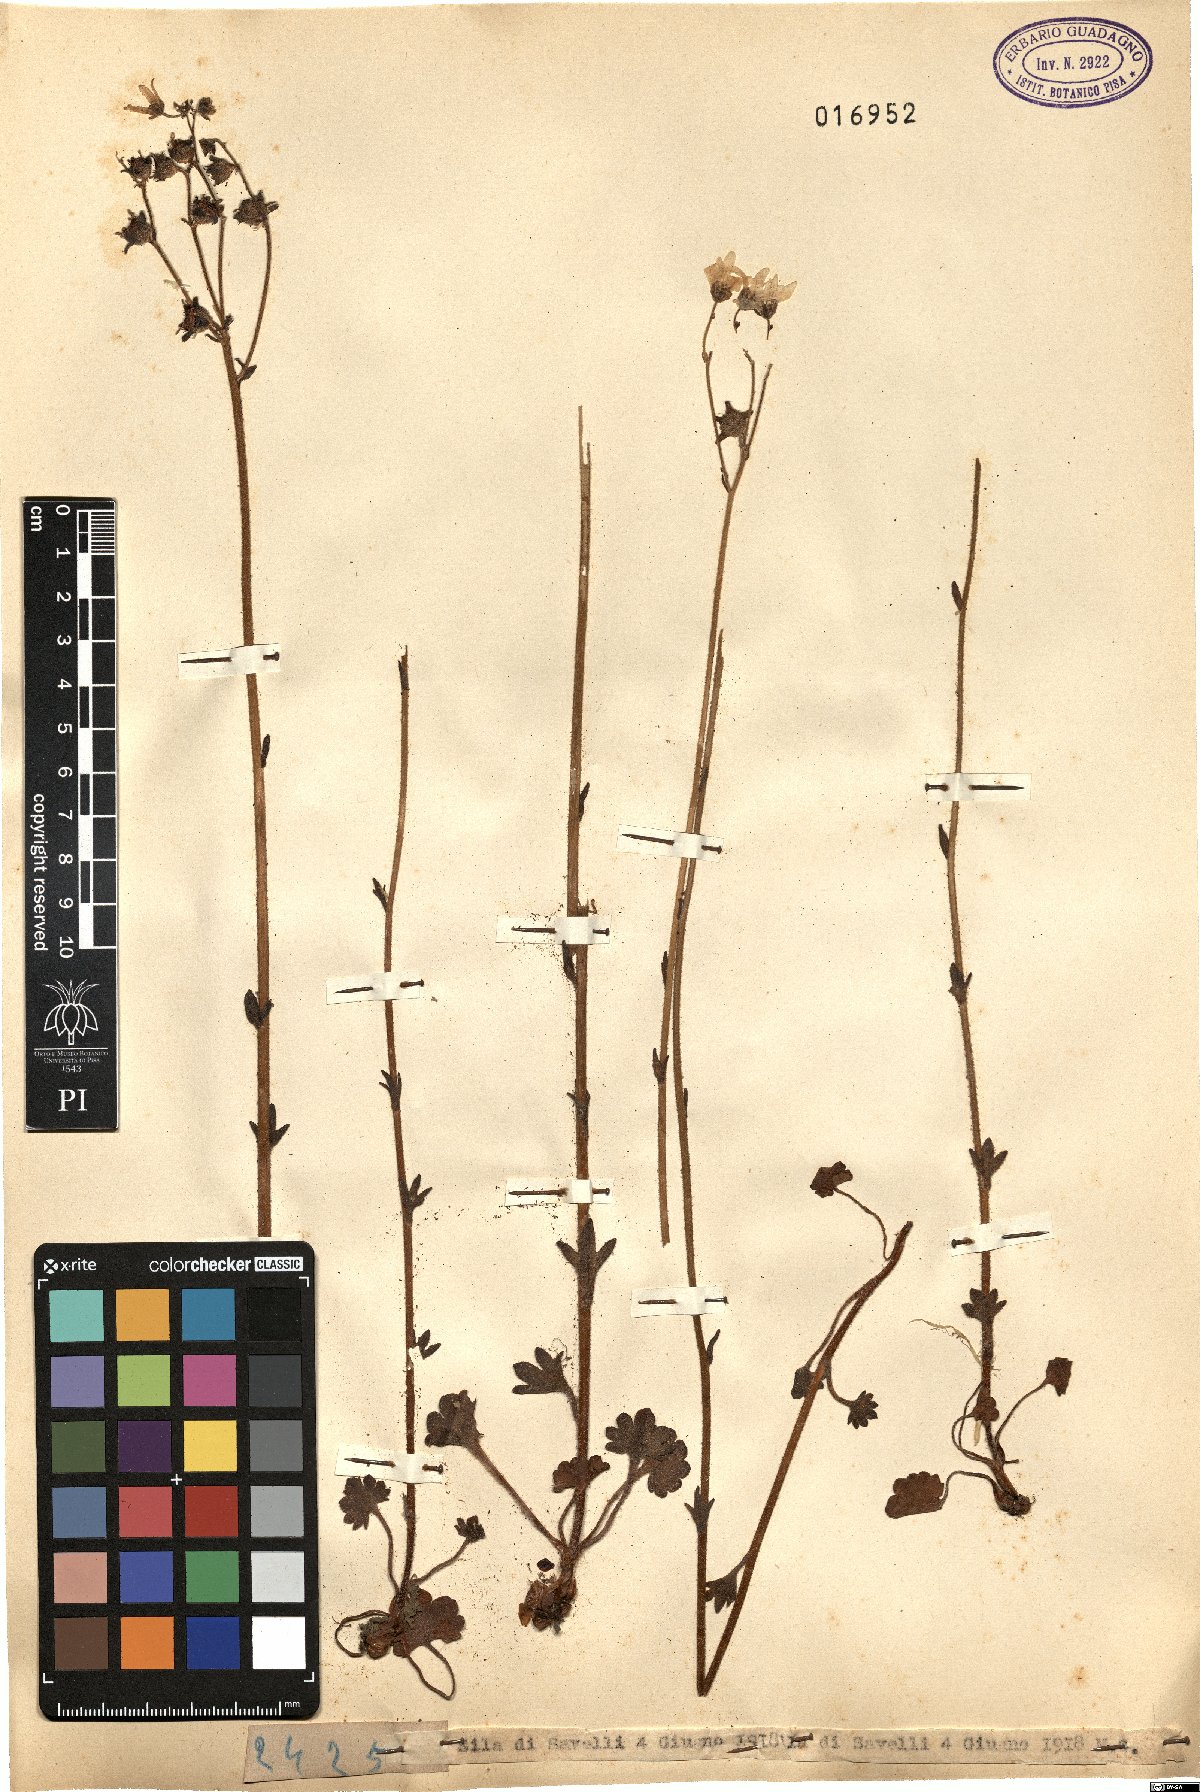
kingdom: Plantae
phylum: Tracheophyta
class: Magnoliopsida
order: Saxifragales
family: Saxifragaceae
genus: Saxifraga
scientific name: Saxifraga
